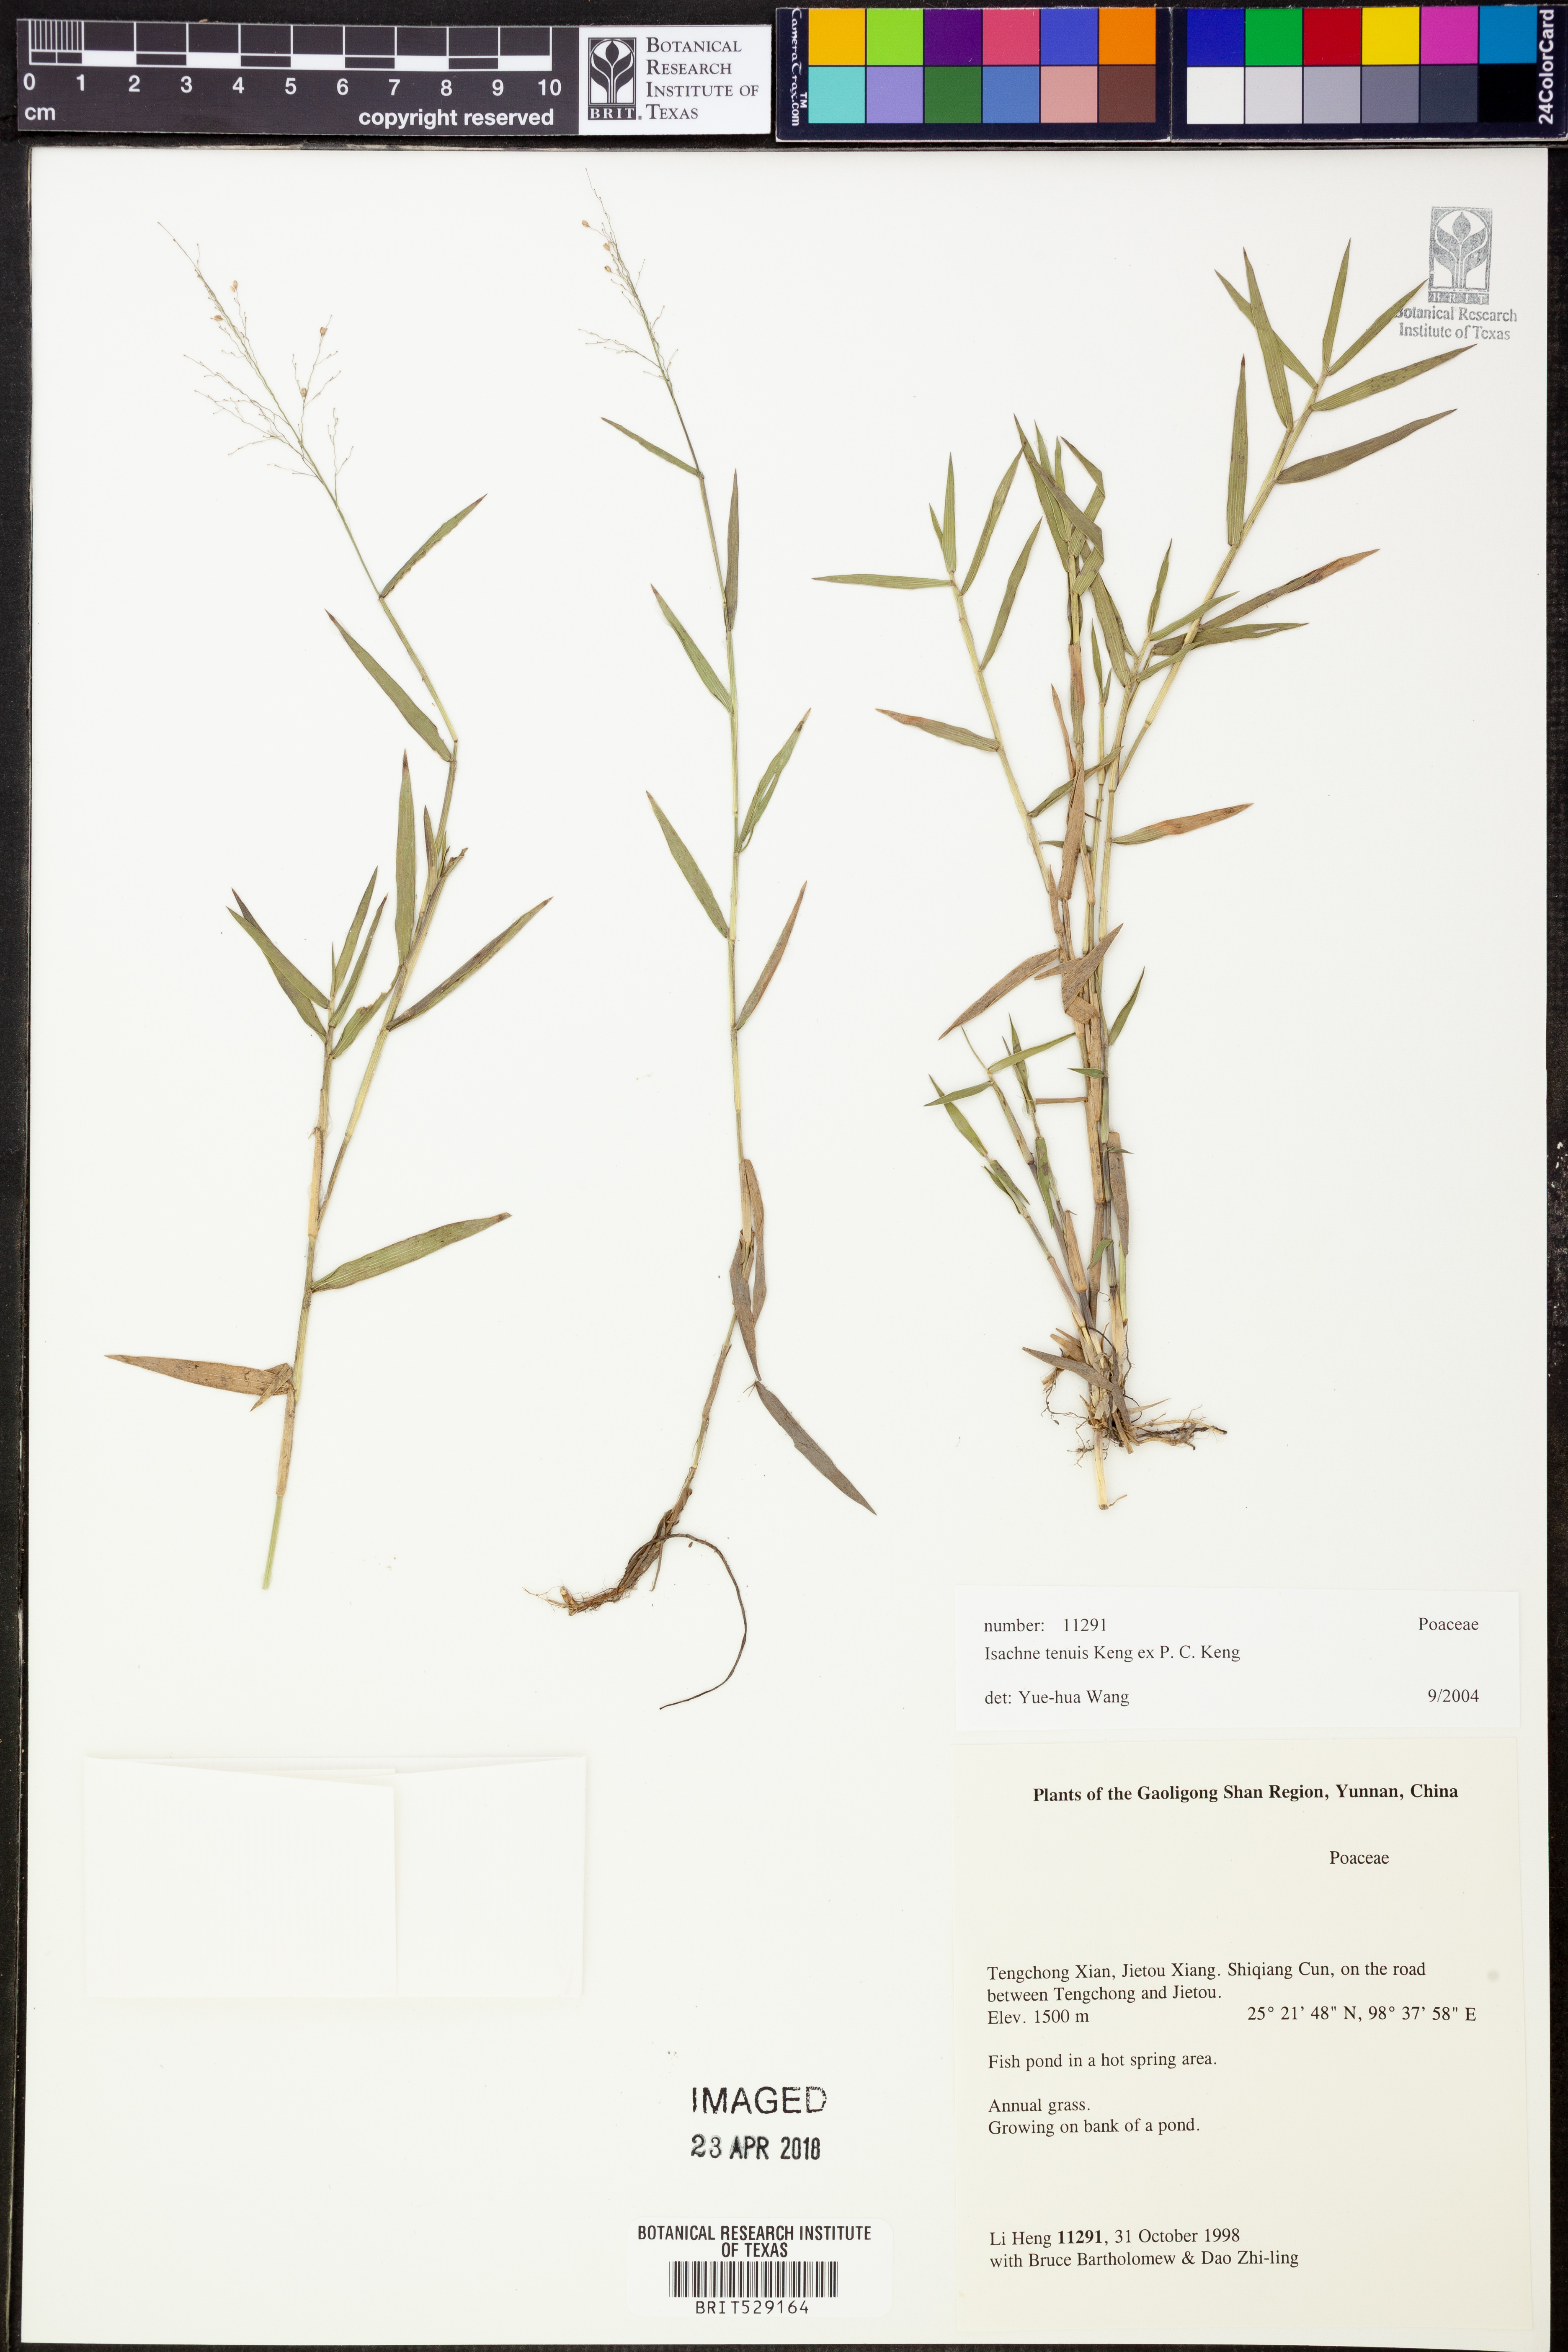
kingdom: Plantae
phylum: Tracheophyta
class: Liliopsida
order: Poales
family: Poaceae
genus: Isachne
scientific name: Isachne clarkei
